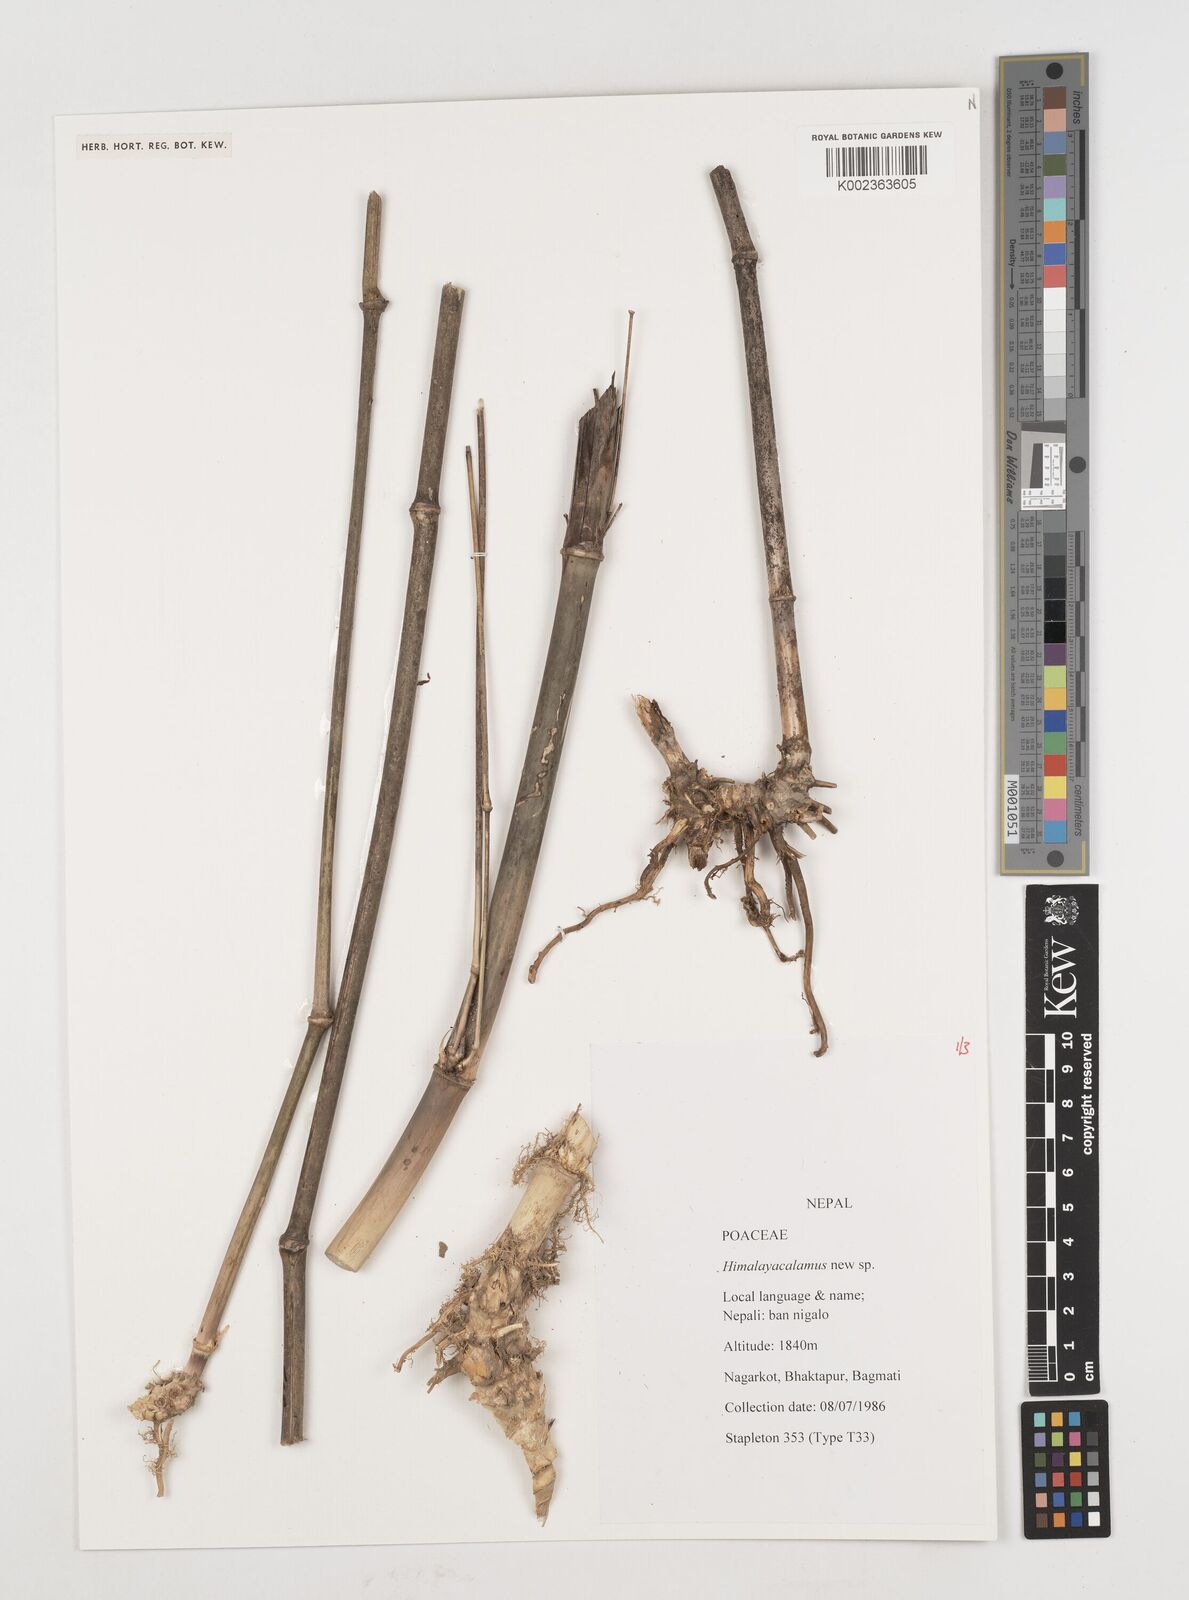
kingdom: Plantae
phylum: Tracheophyta
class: Liliopsida
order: Poales
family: Poaceae
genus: Himalayacalamus
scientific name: Himalayacalamus
